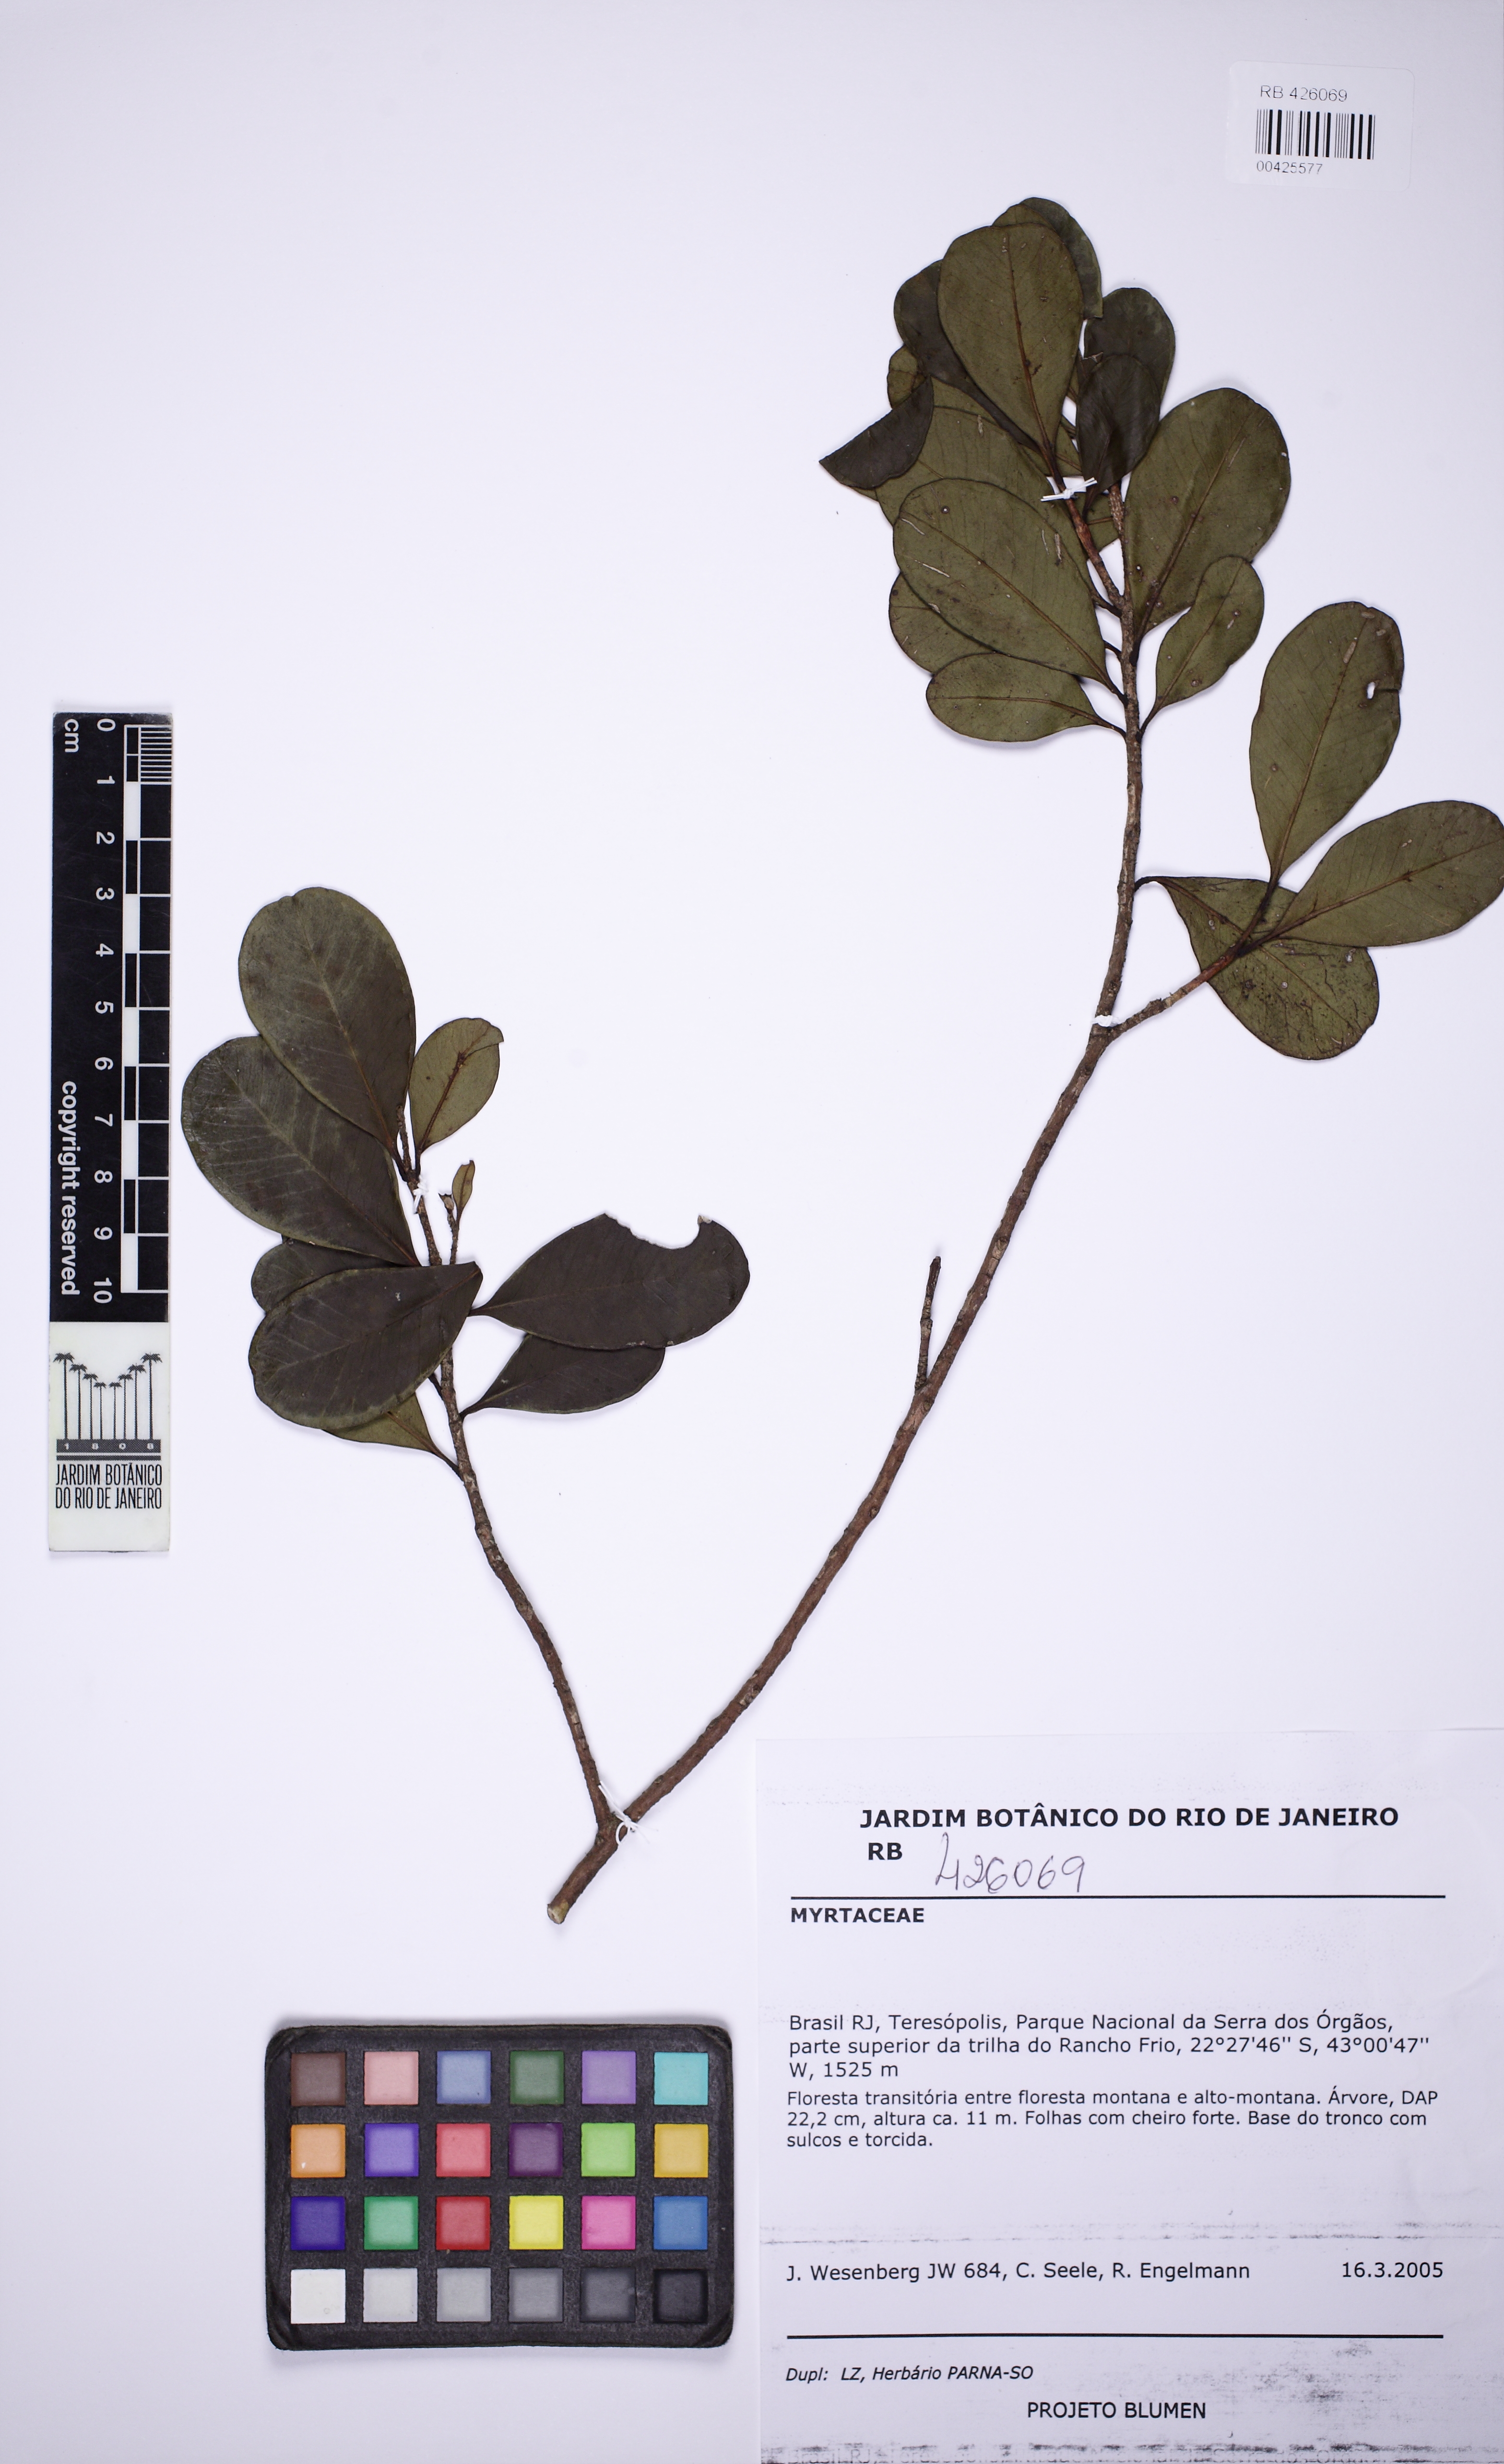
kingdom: Plantae
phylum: Tracheophyta
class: Magnoliopsida
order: Myrtales
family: Myrtaceae
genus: Myrcia
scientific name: Myrcia coelosepala
